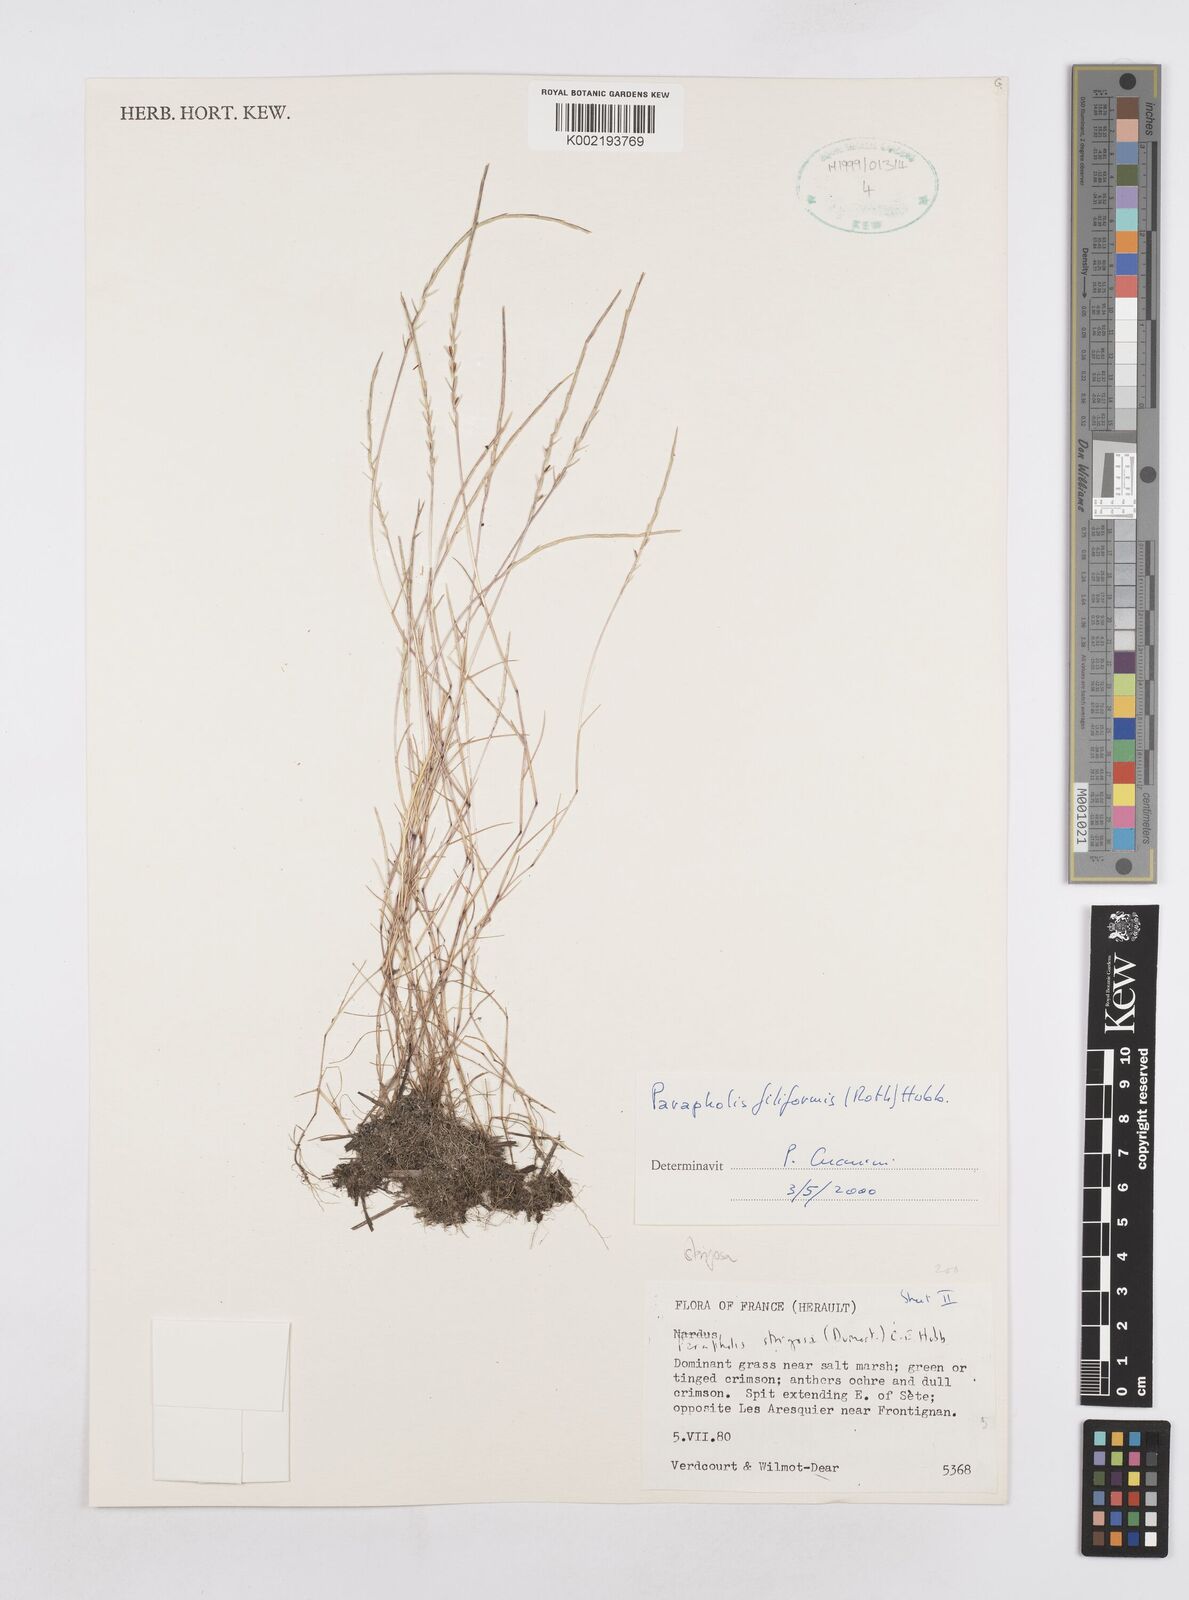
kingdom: Plantae
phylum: Tracheophyta
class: Liliopsida
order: Poales
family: Poaceae
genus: Parapholis
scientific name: Parapholis strigosa
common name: Hard-grass
